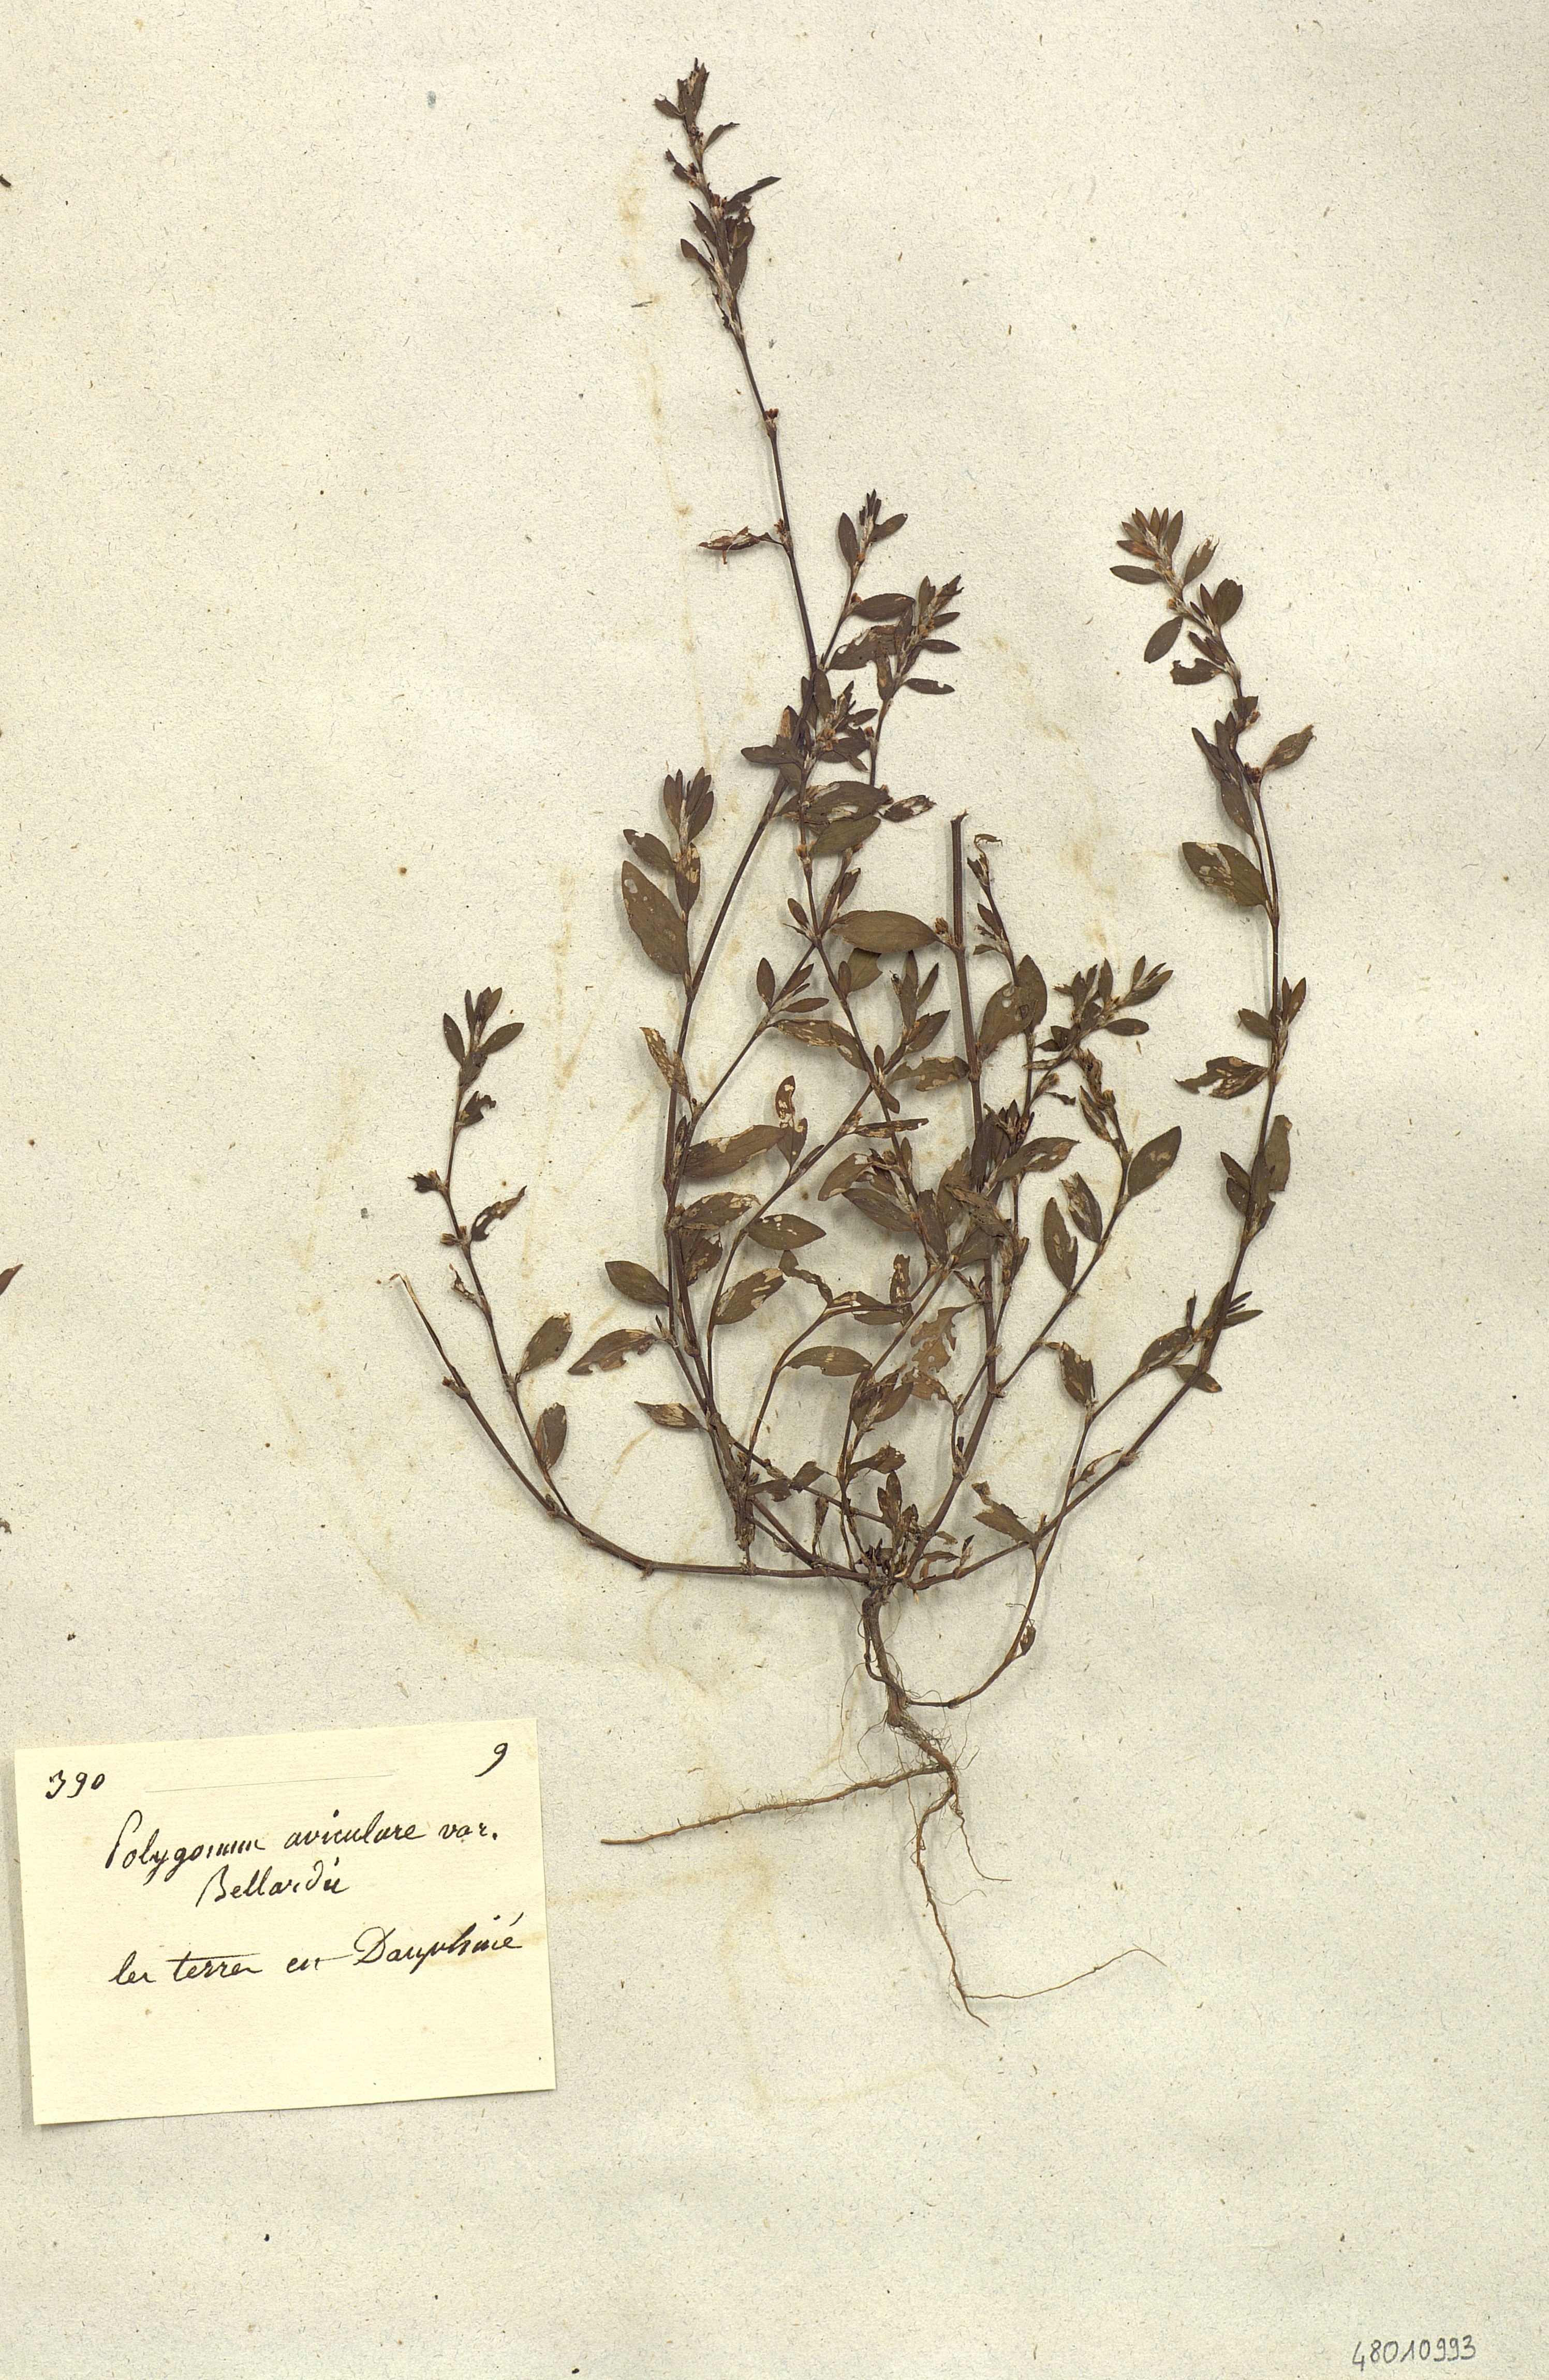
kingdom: Plantae
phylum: Tracheophyta
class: Magnoliopsida
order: Caryophyllales
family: Polygonaceae
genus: Polygonum
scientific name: Polygonum aviculare
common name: Prostrate knotweed
